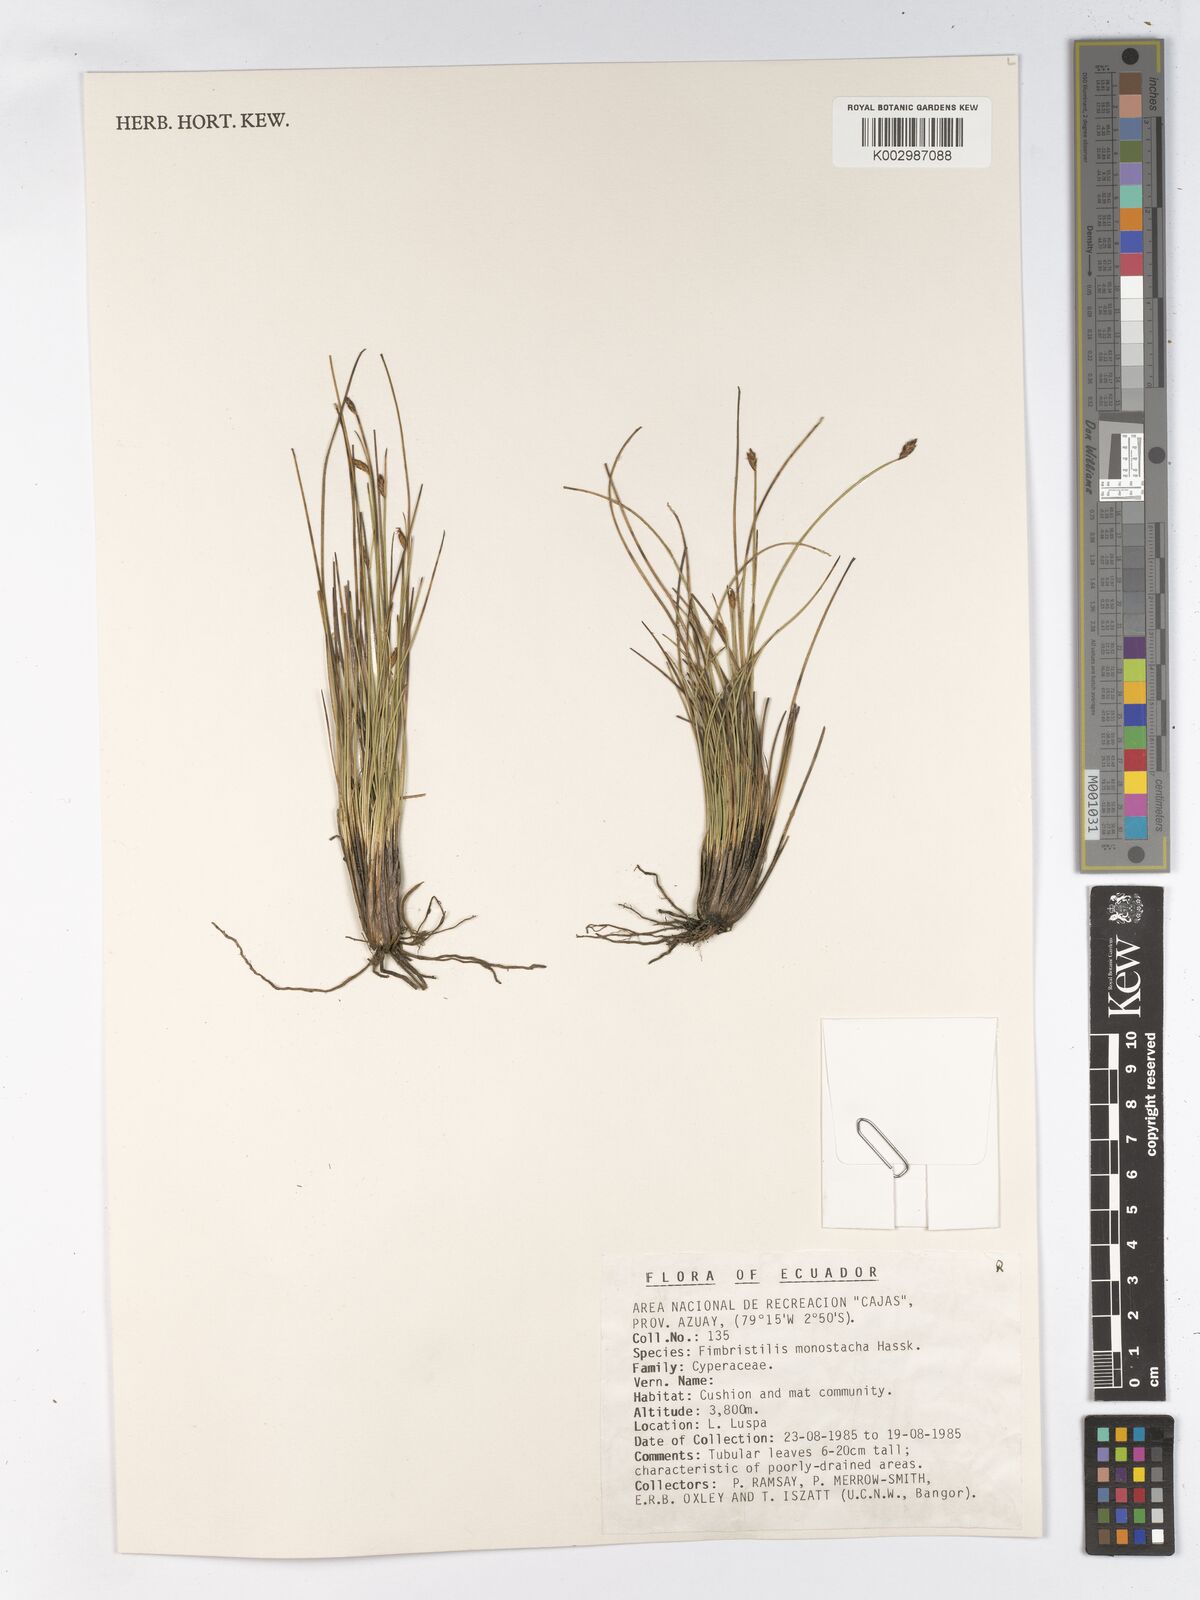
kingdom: Plantae
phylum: Tracheophyta
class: Liliopsida
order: Poales
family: Cyperaceae
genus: Abildgaardia
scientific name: Abildgaardia ovata
